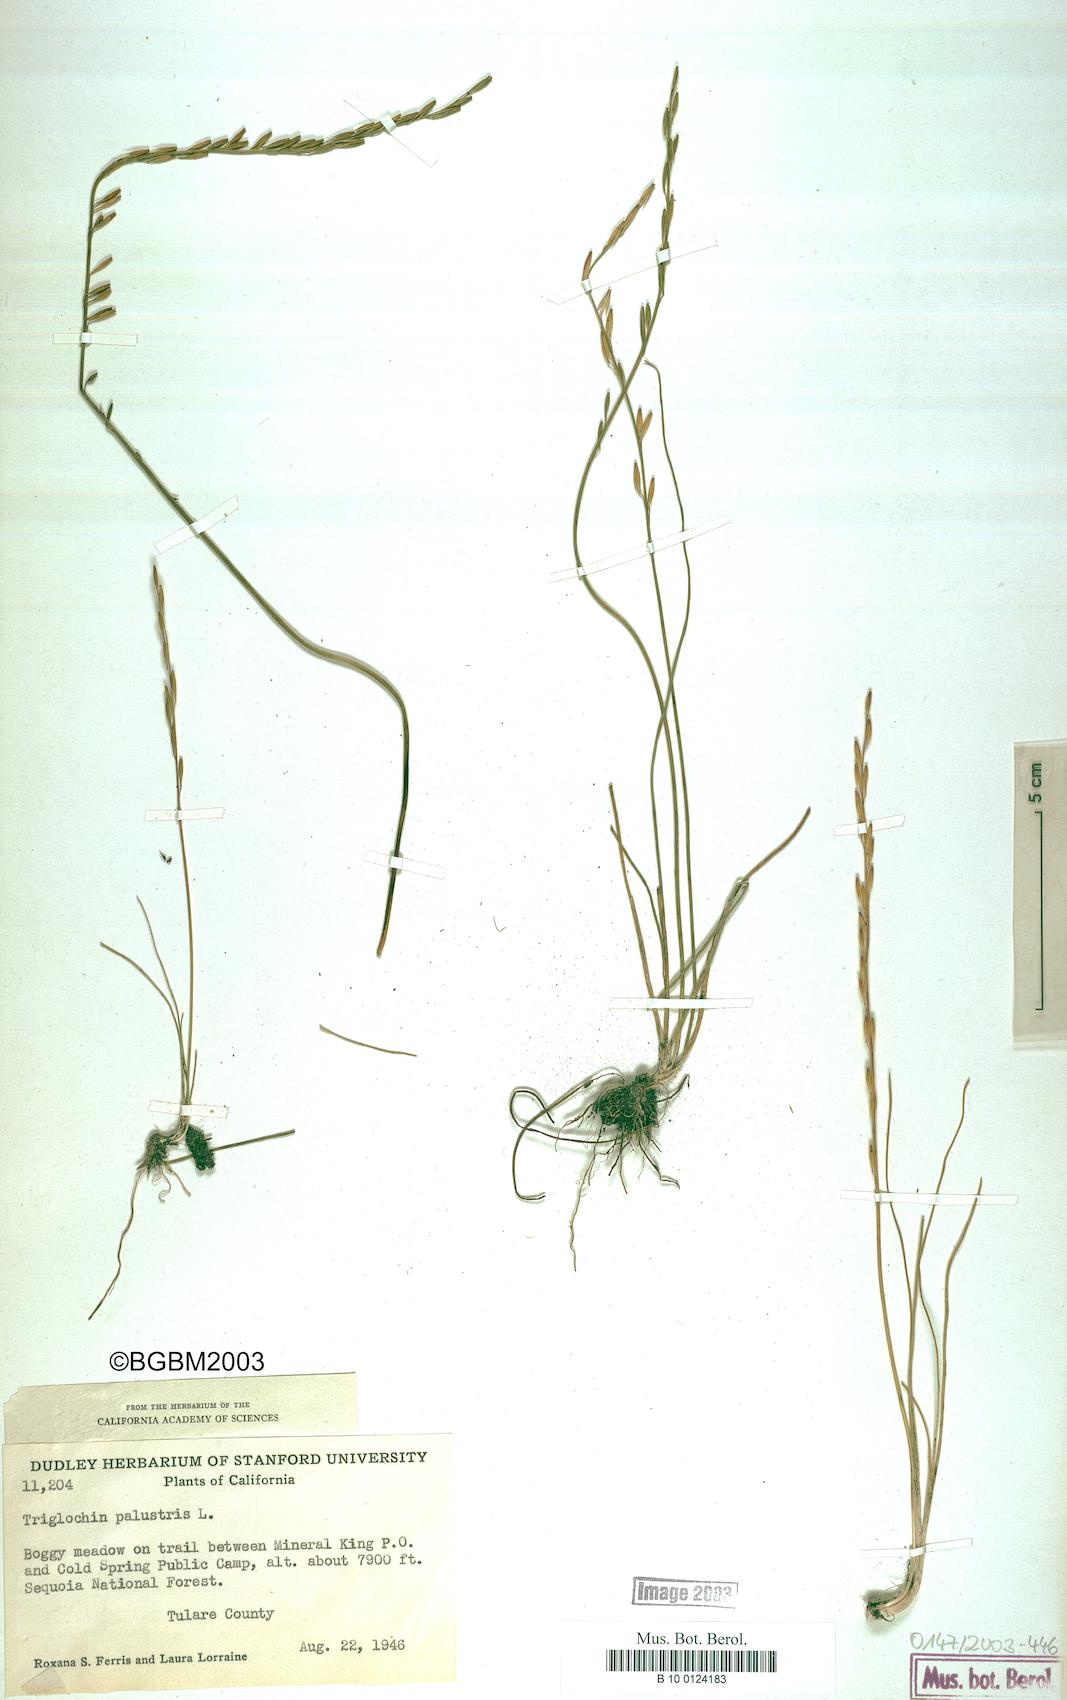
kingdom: Plantae
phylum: Tracheophyta
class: Liliopsida
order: Alismatales
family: Juncaginaceae
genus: Triglochin
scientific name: Triglochin palustris
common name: Marsh arrowgrass
